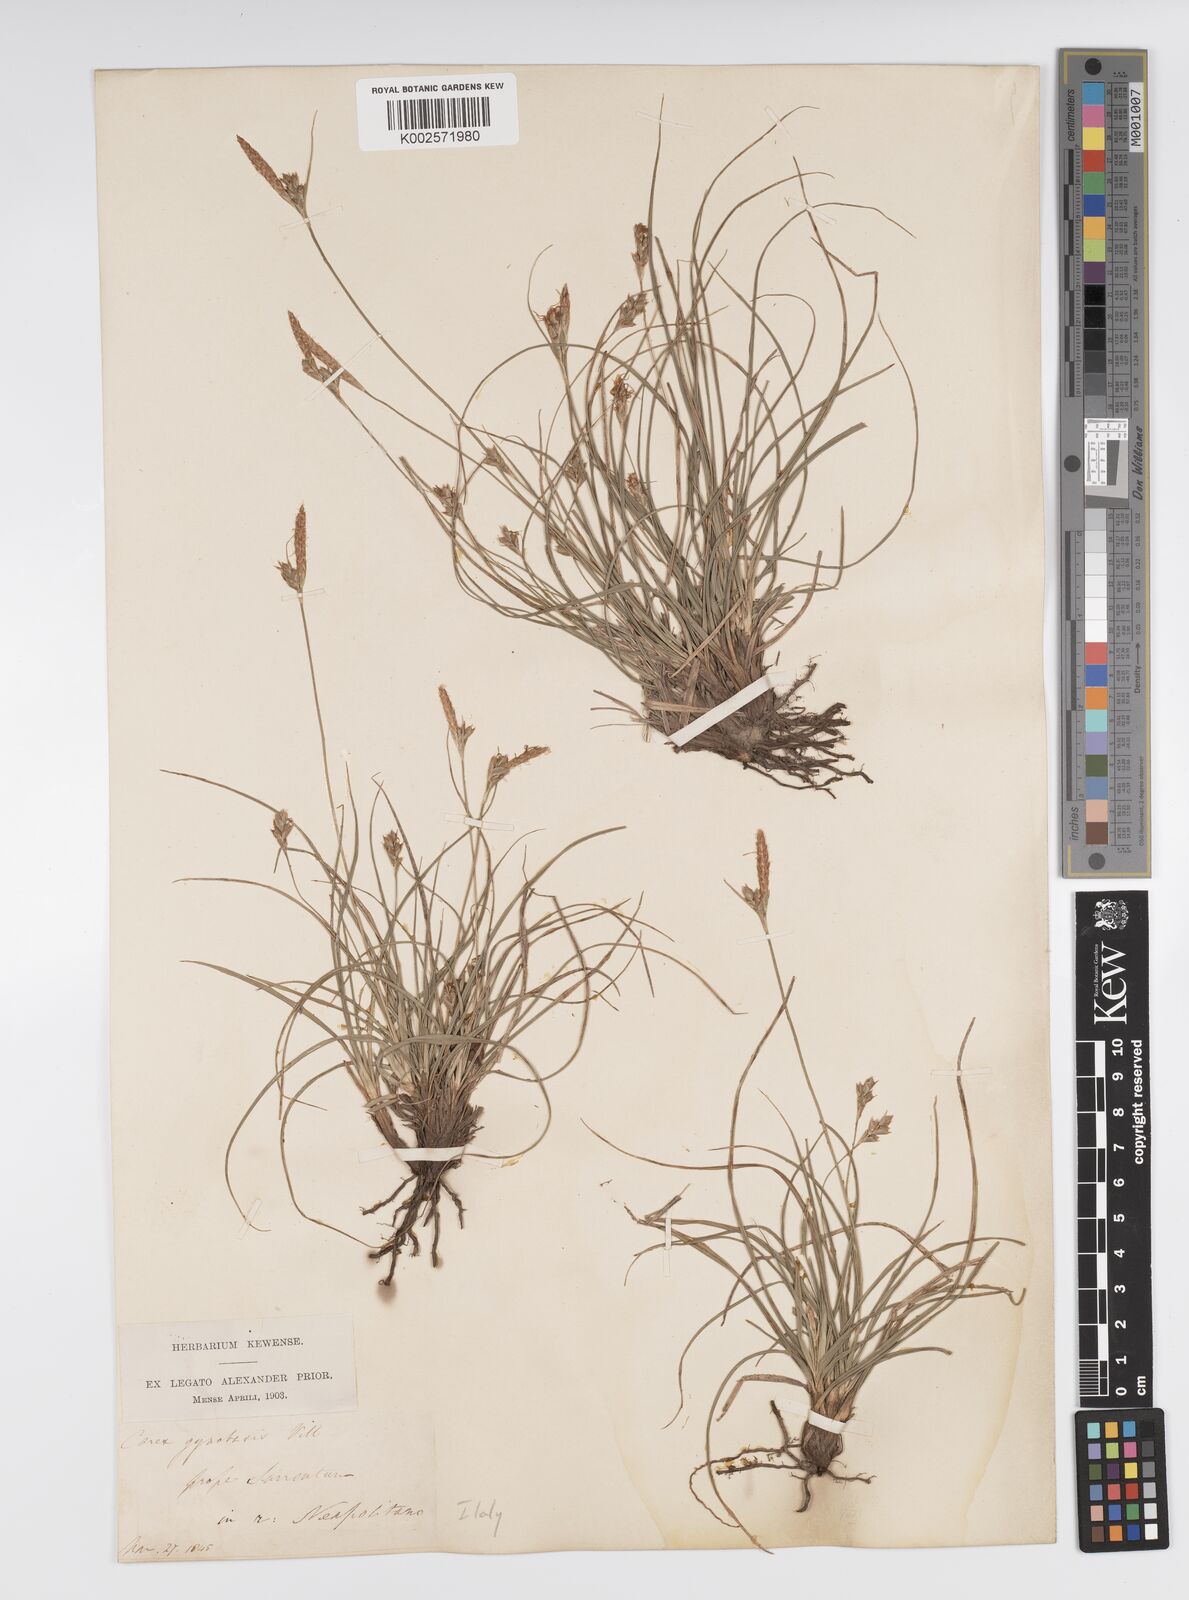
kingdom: Plantae
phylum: Tracheophyta
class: Liliopsida
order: Poales
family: Cyperaceae
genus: Carex
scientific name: Carex halleriana
